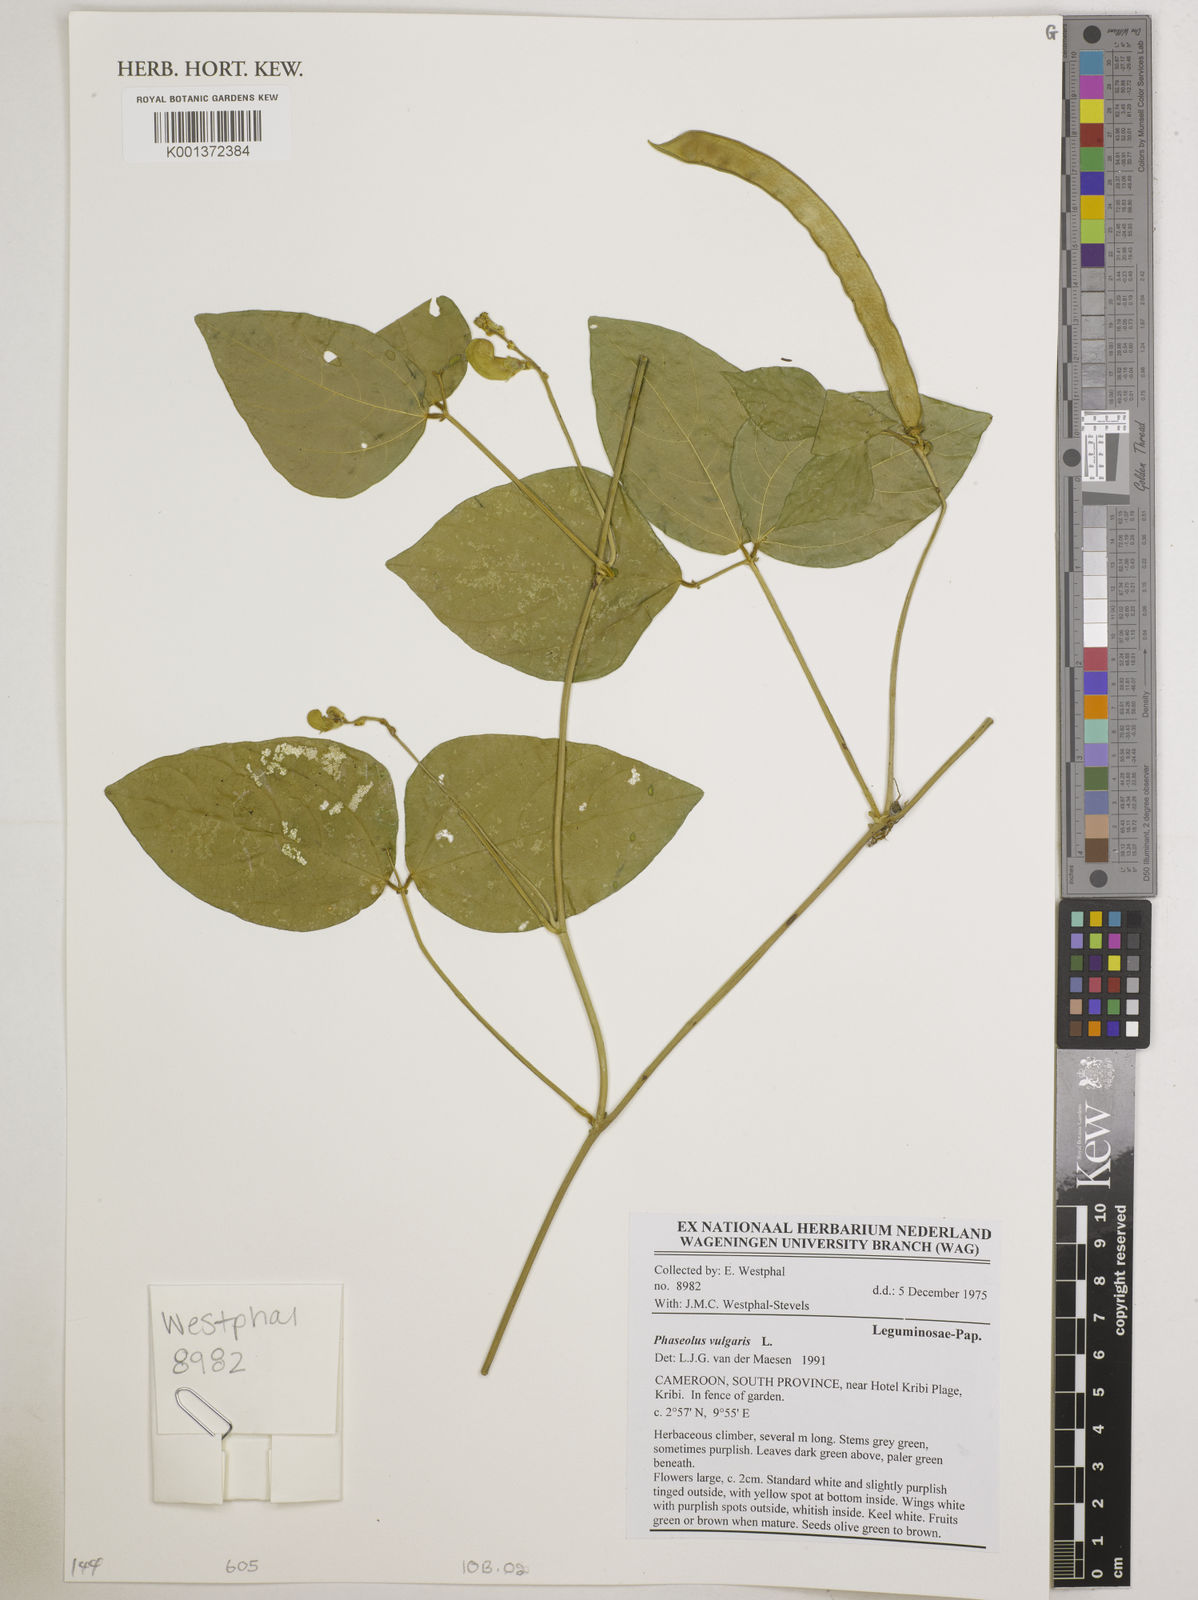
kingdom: Plantae
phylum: Tracheophyta
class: Magnoliopsida
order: Fabales
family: Fabaceae
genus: Phaseolus
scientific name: Phaseolus vulgaris
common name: Bean
